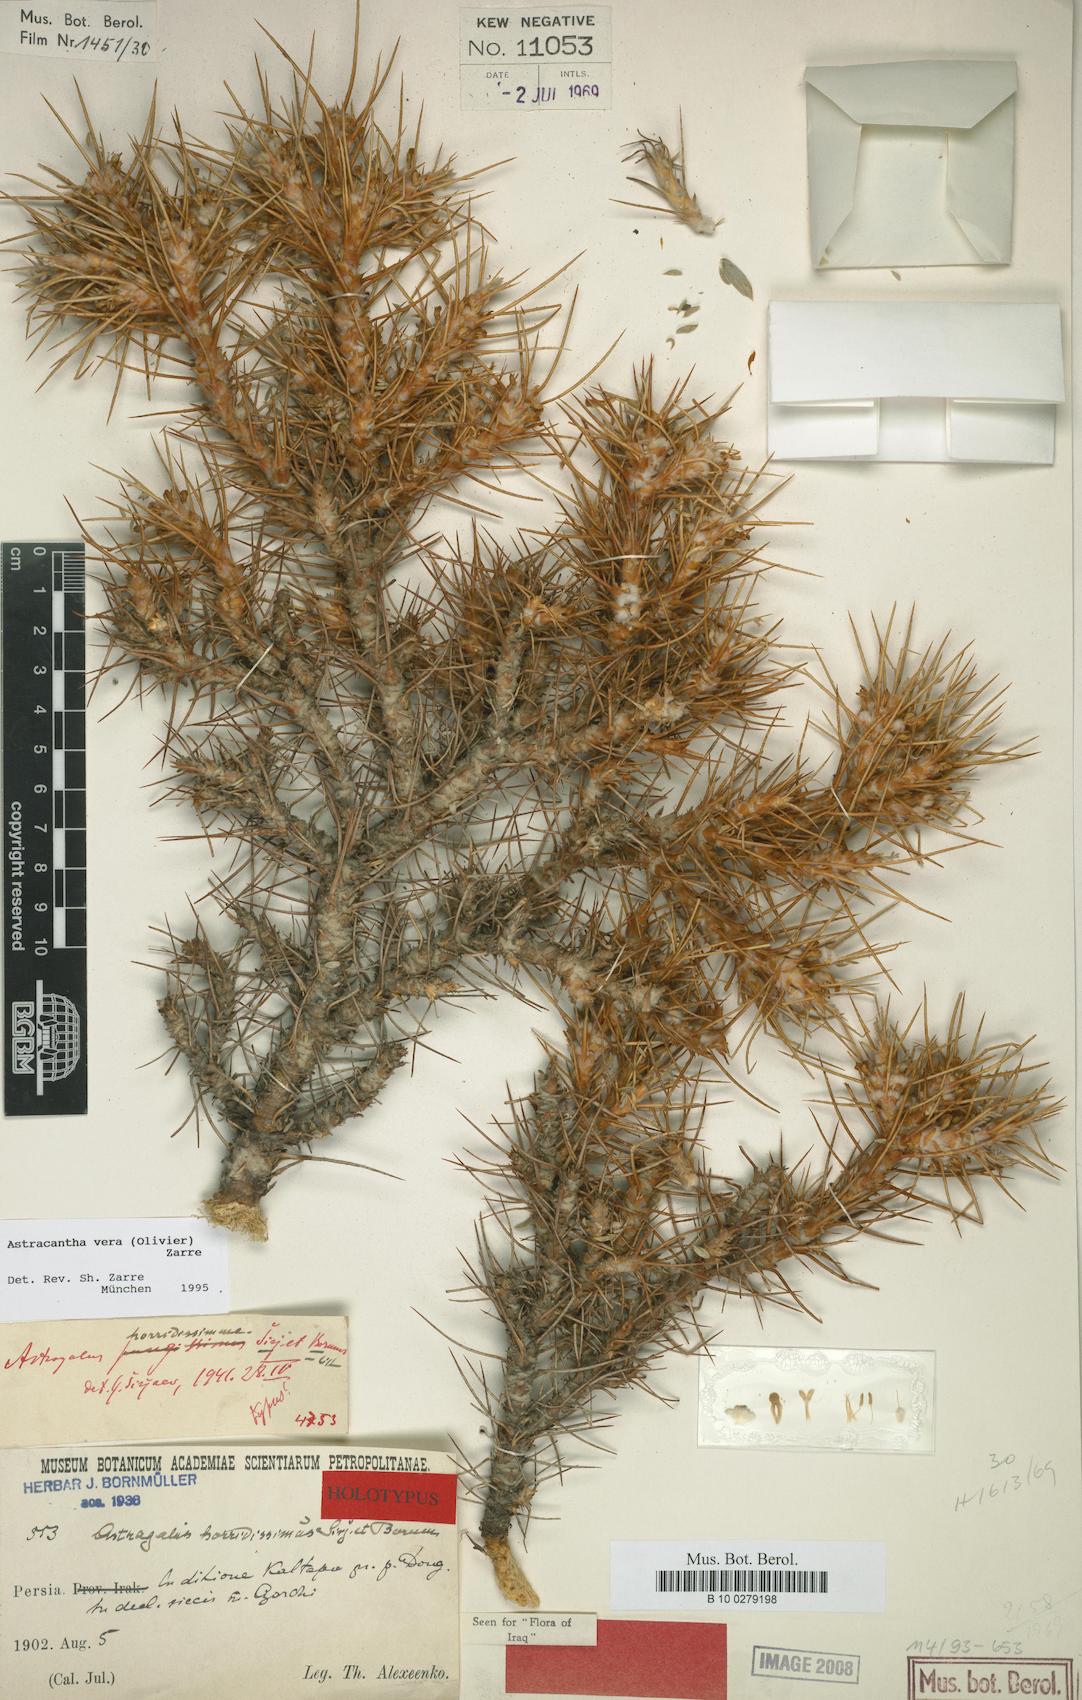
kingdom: Chromista
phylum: Cercozoa
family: Astracanthidae
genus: Astracantha
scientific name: Astracantha
